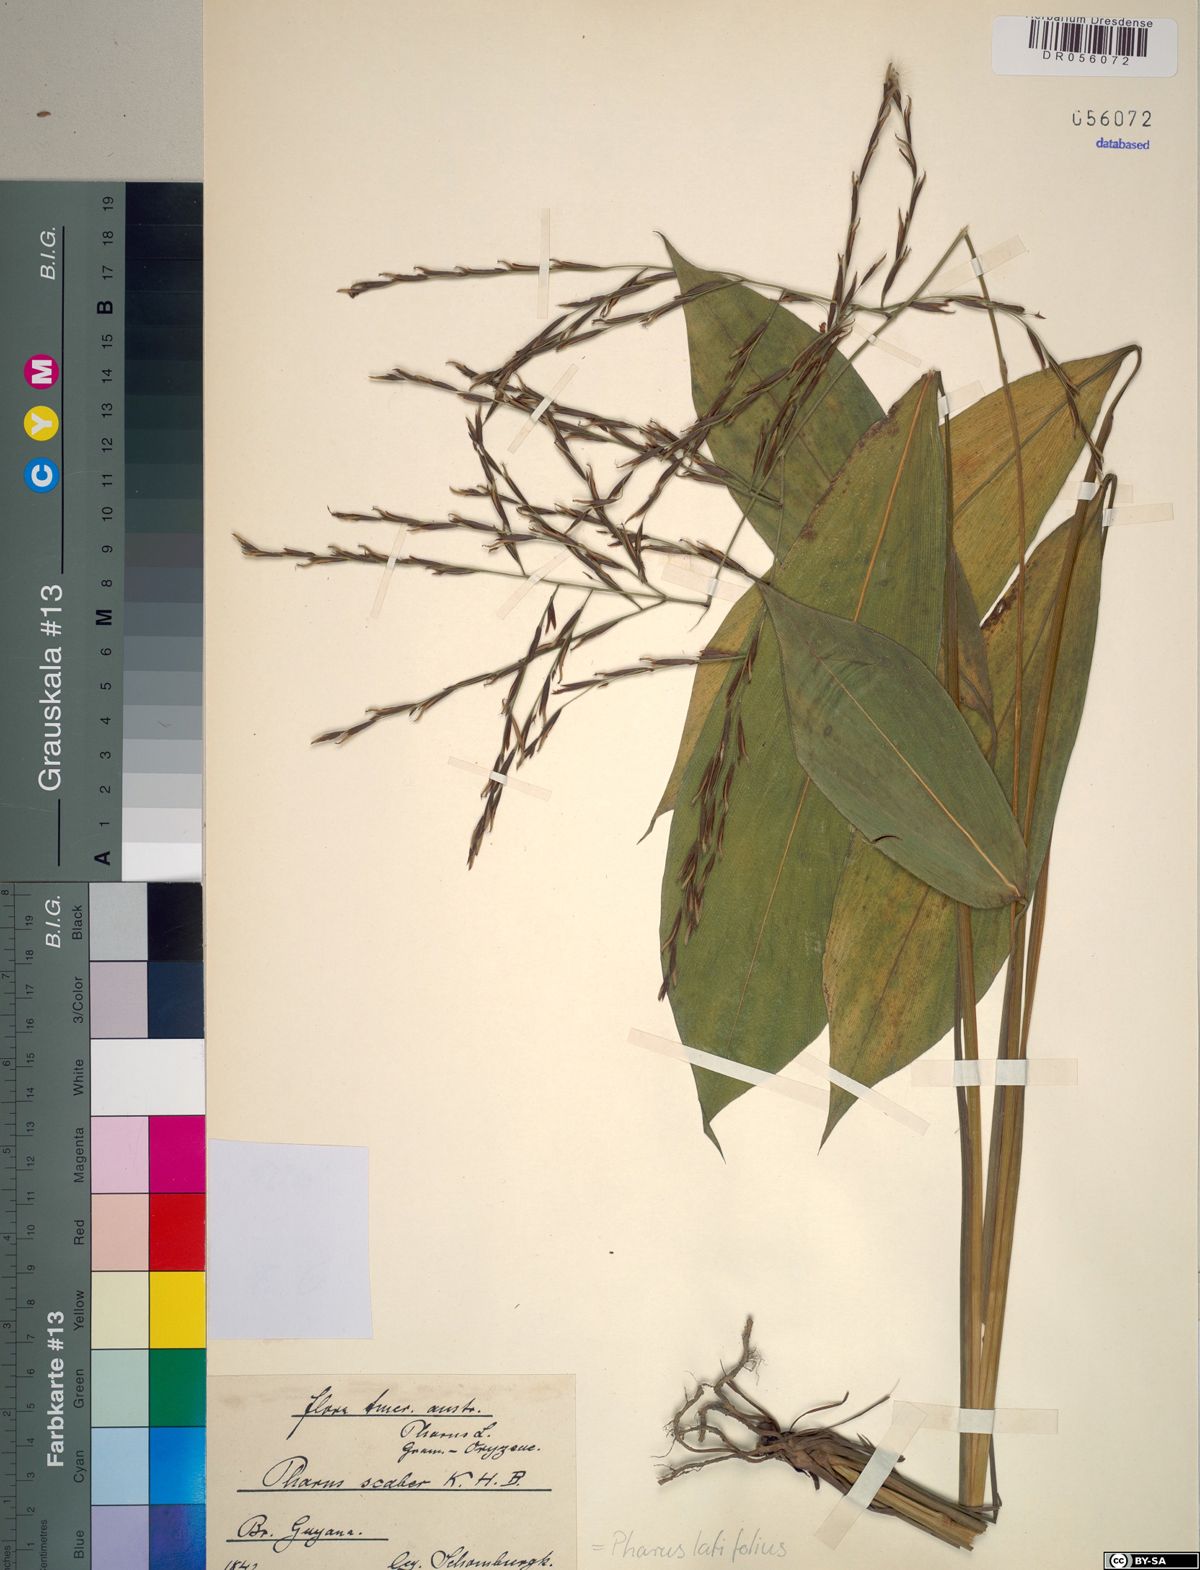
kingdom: Plantae
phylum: Tracheophyta
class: Liliopsida
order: Poales
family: Poaceae
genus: Pharus
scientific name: Pharus latifolius
